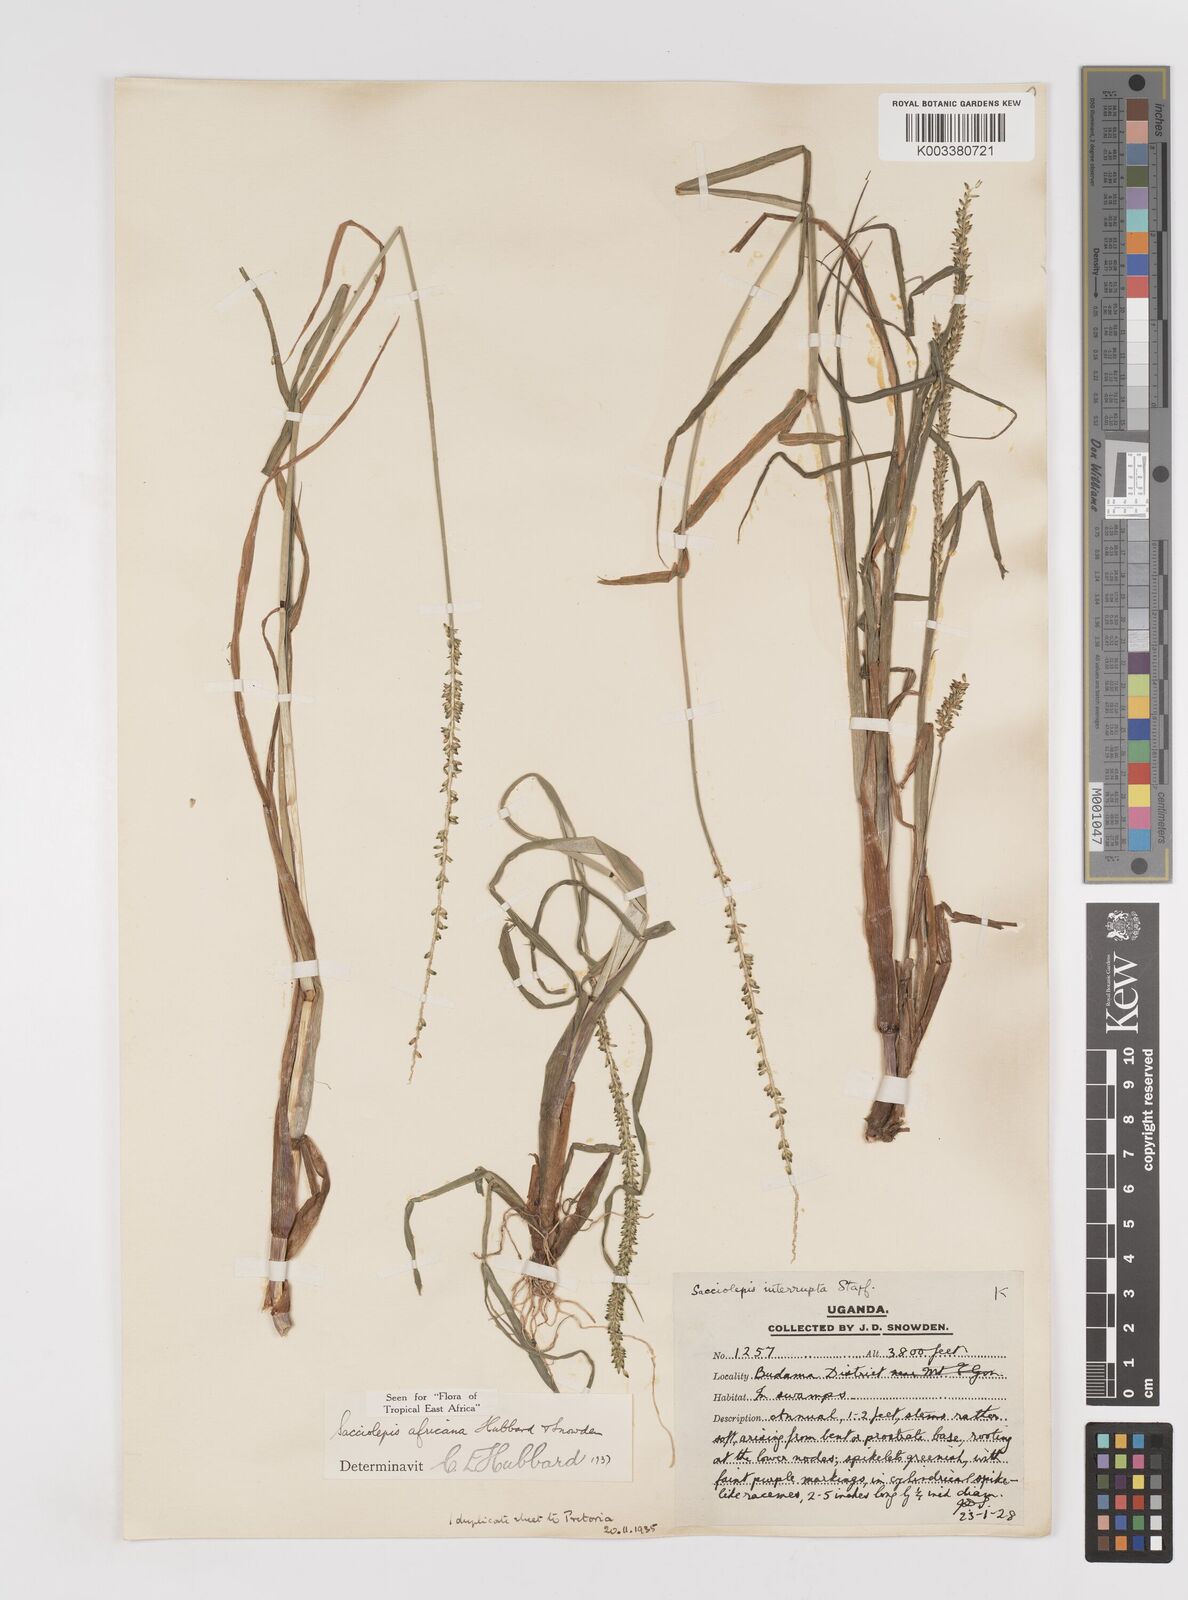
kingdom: Plantae
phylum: Tracheophyta
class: Liliopsida
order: Poales
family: Poaceae
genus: Sacciolepis
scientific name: Sacciolepis africana
